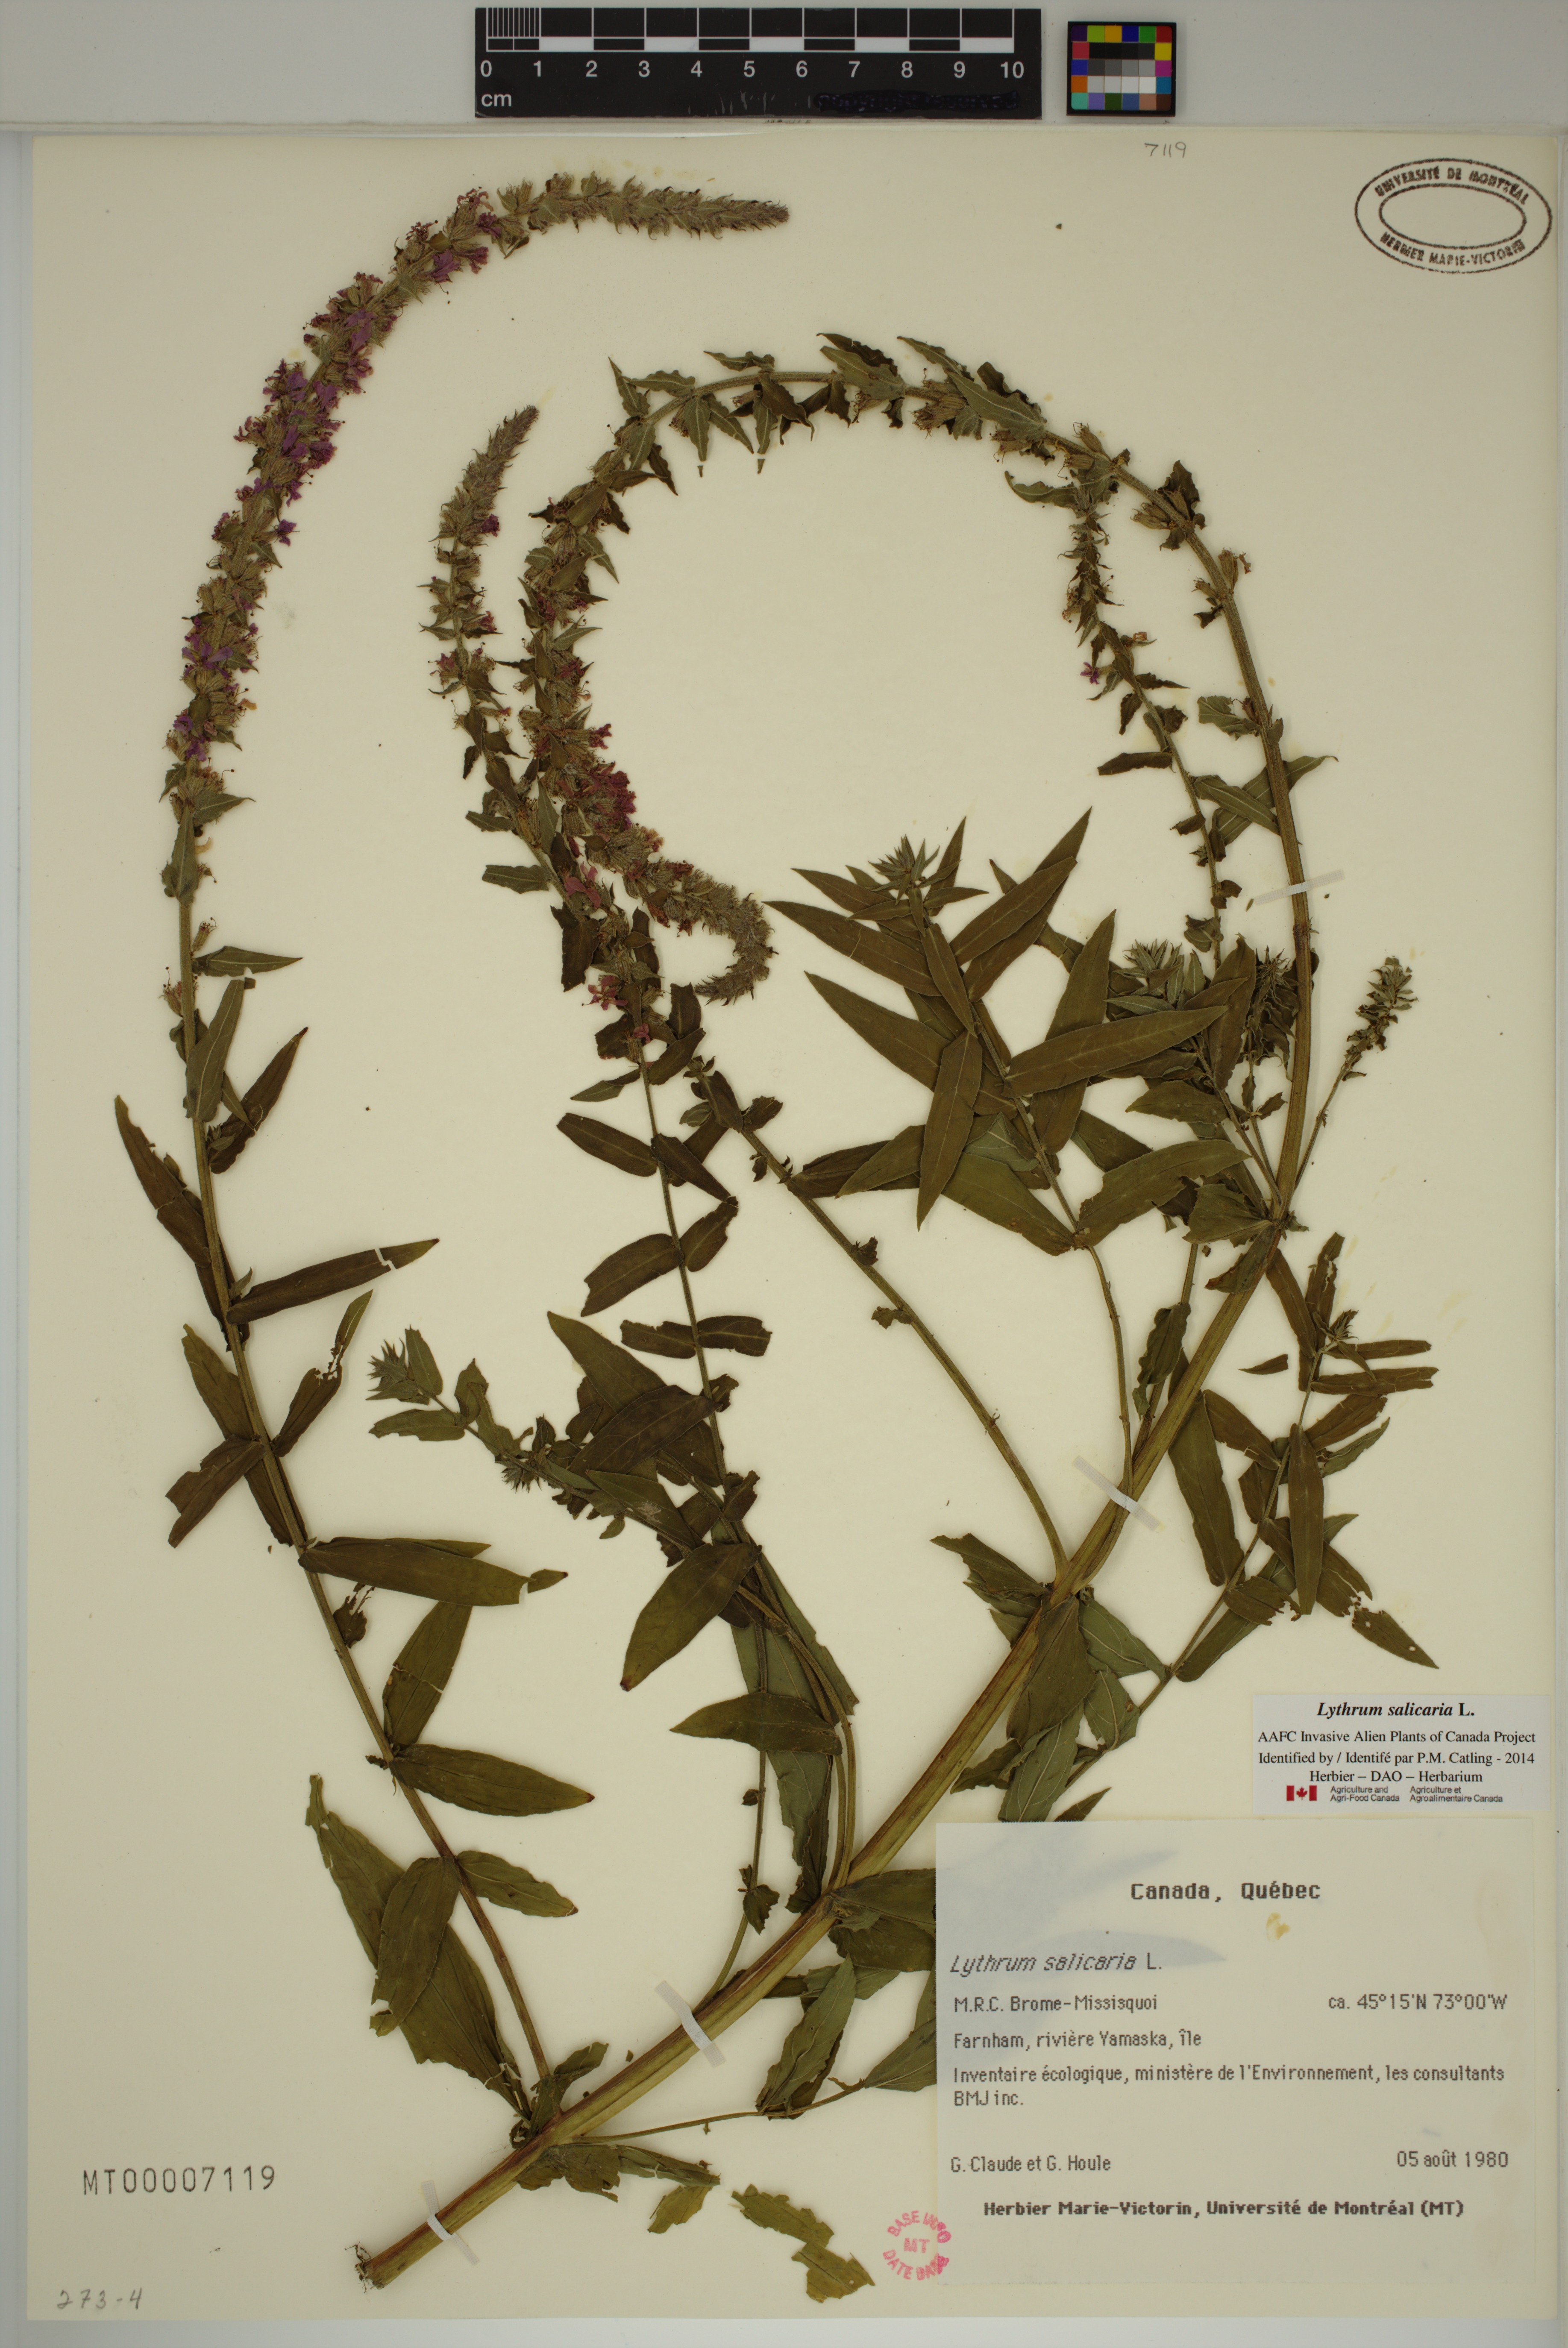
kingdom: Plantae
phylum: Tracheophyta
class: Magnoliopsida
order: Myrtales
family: Lythraceae
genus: Lythrum
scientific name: Lythrum salicaria
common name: Purple loosestrife
